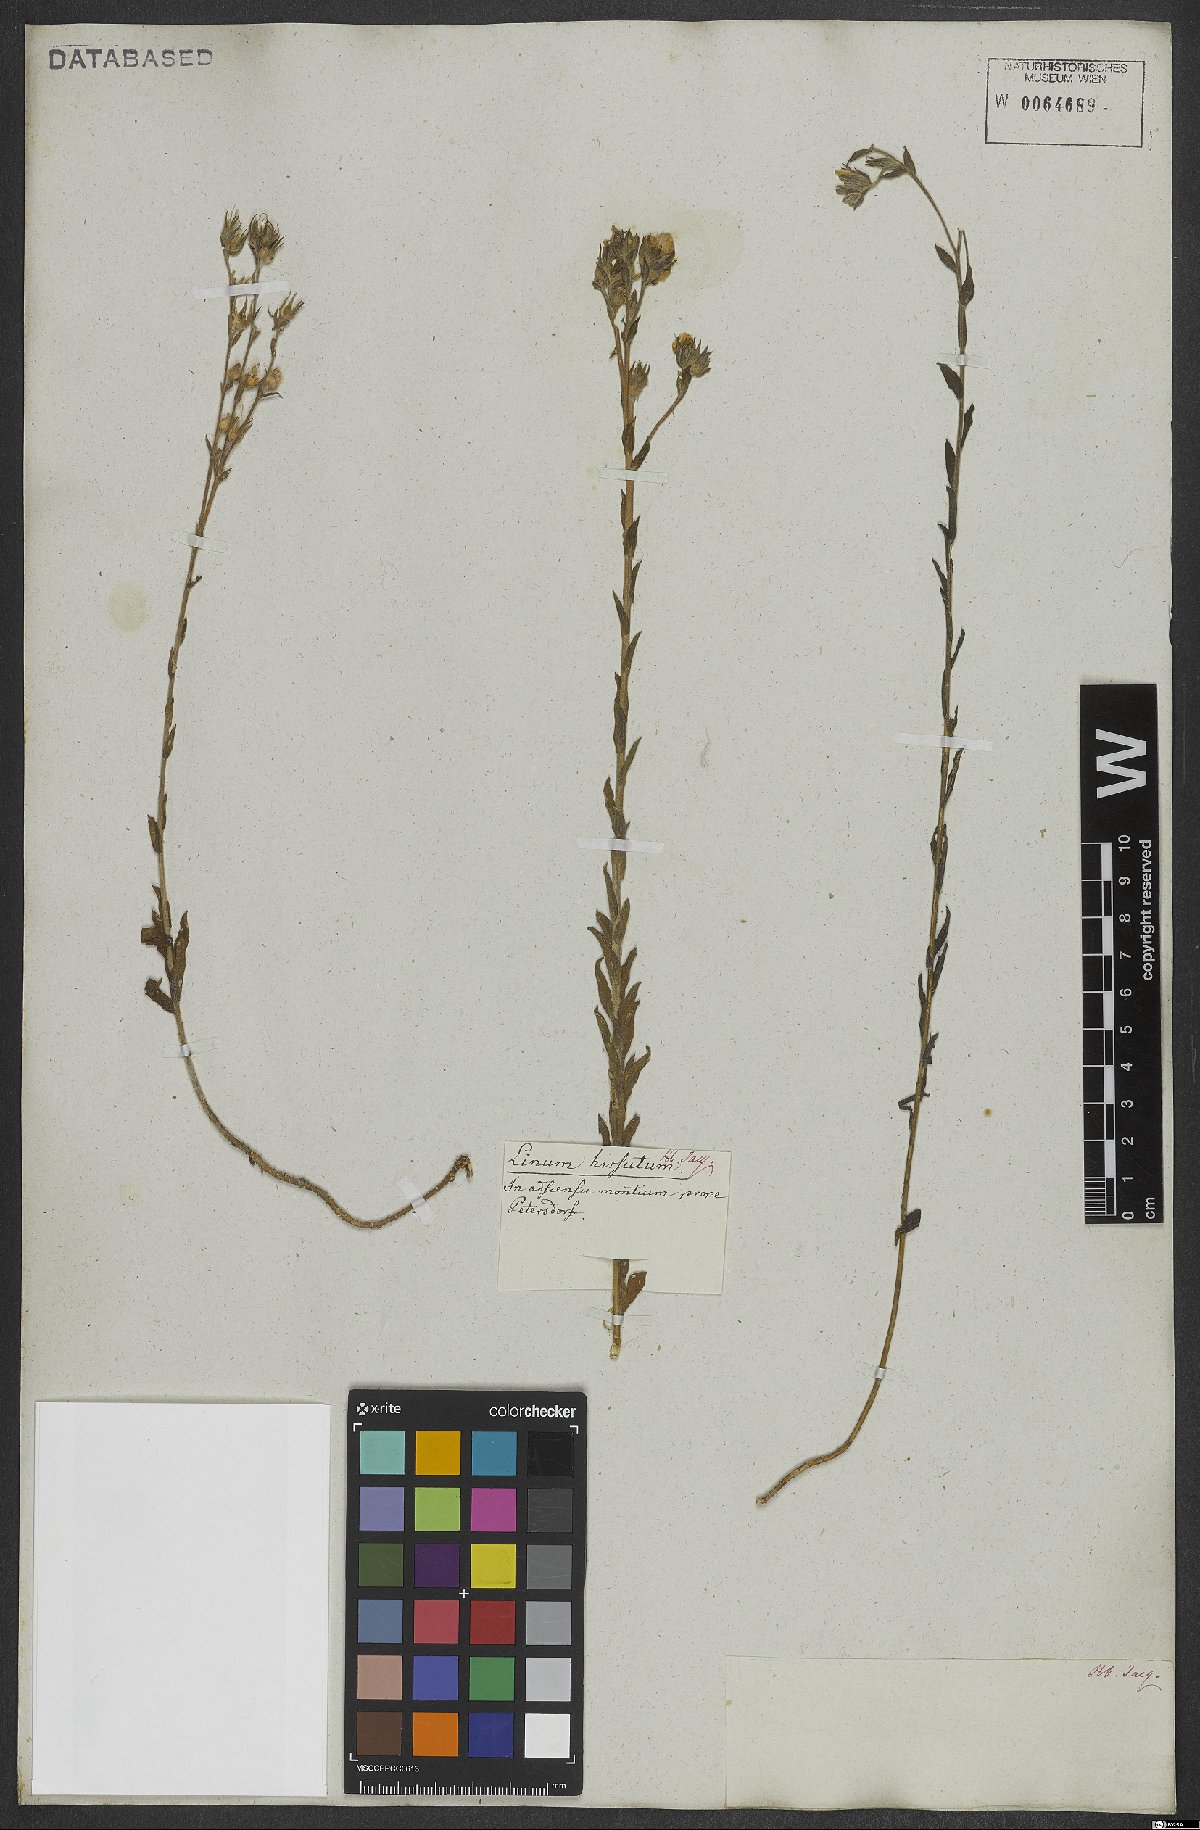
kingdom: Plantae
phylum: Tracheophyta
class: Magnoliopsida
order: Malpighiales
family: Linaceae
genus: Linum
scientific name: Linum hirsutum
